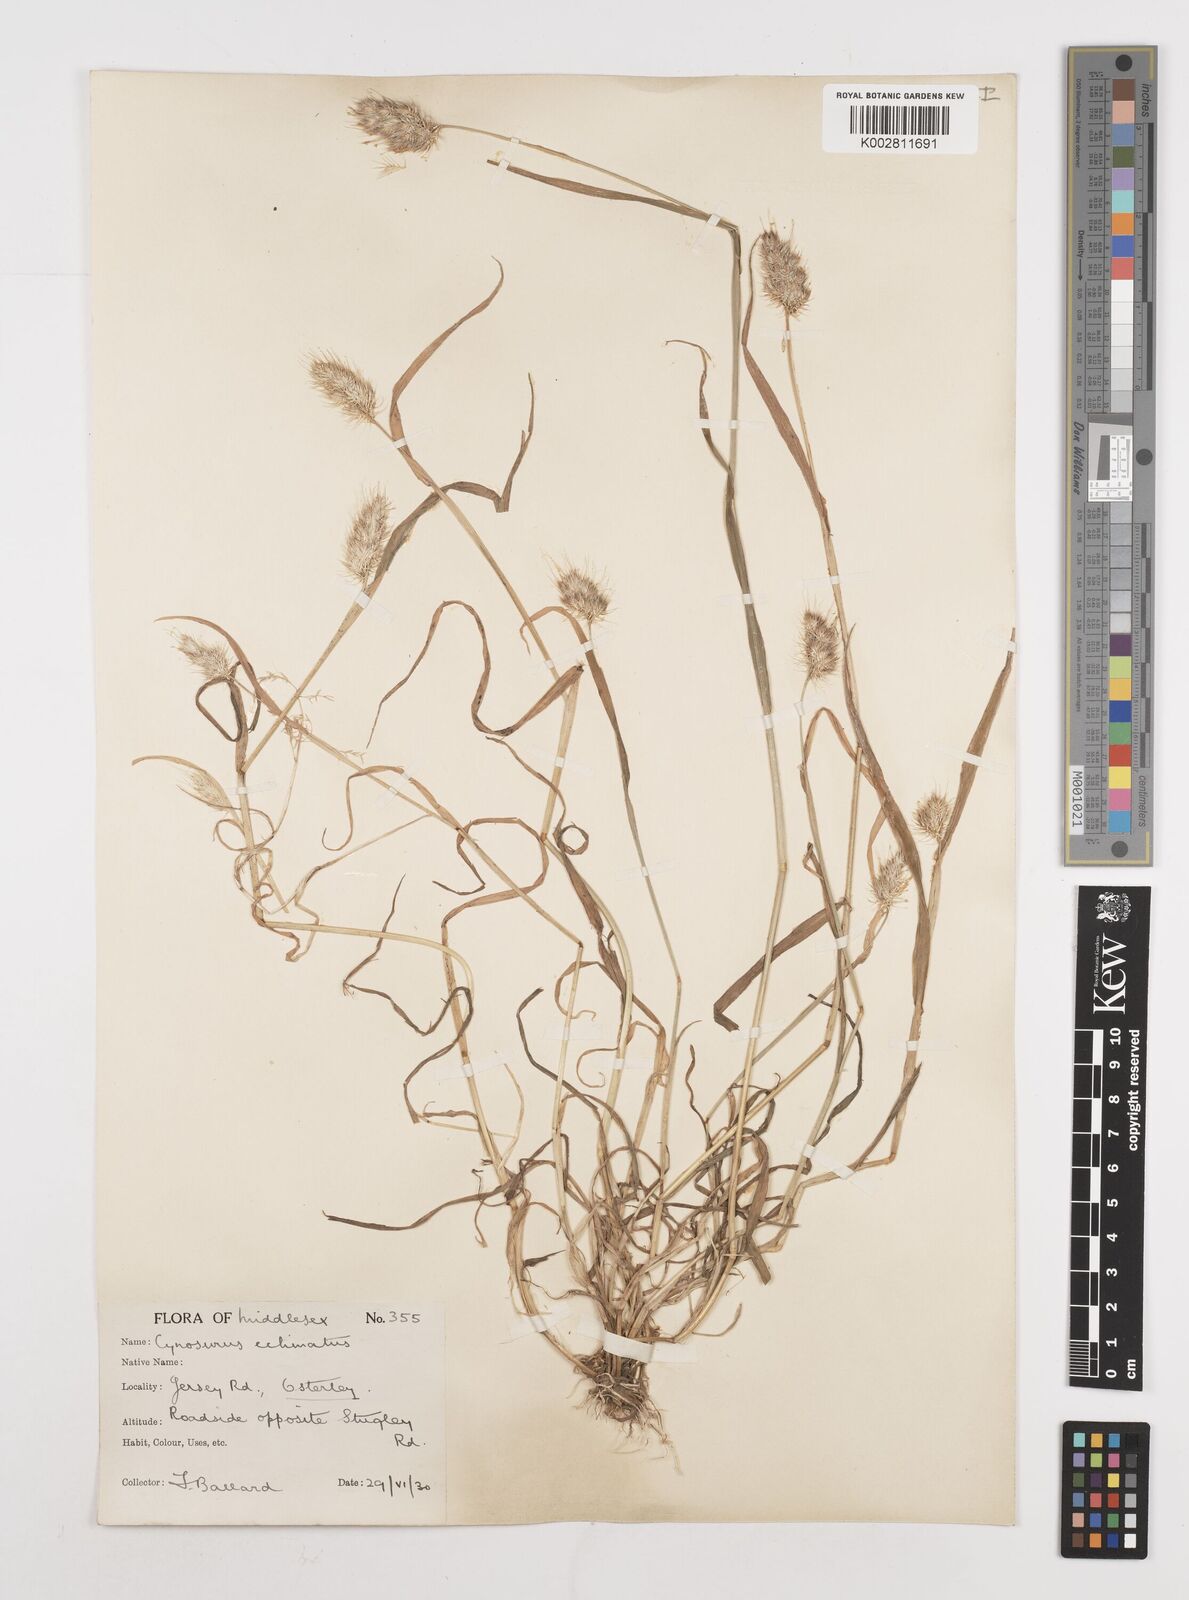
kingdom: Plantae
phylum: Tracheophyta
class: Liliopsida
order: Poales
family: Poaceae
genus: Cynosurus
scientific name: Cynosurus echinatus
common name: Rough dog's-tail
